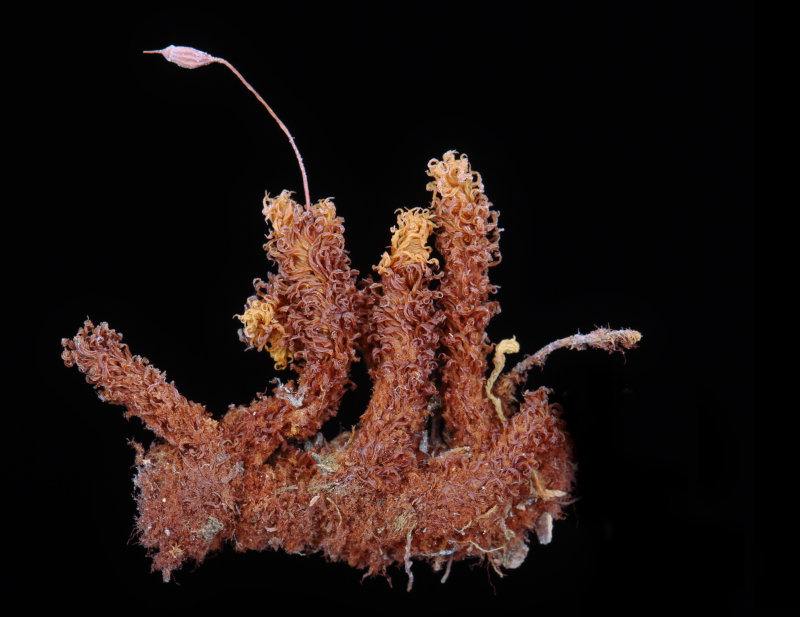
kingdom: Plantae
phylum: Bryophyta
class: Bryopsida
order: Orthotrichales
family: Orthotrichaceae
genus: Macromitrium
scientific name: Macromitrium lorifolium
